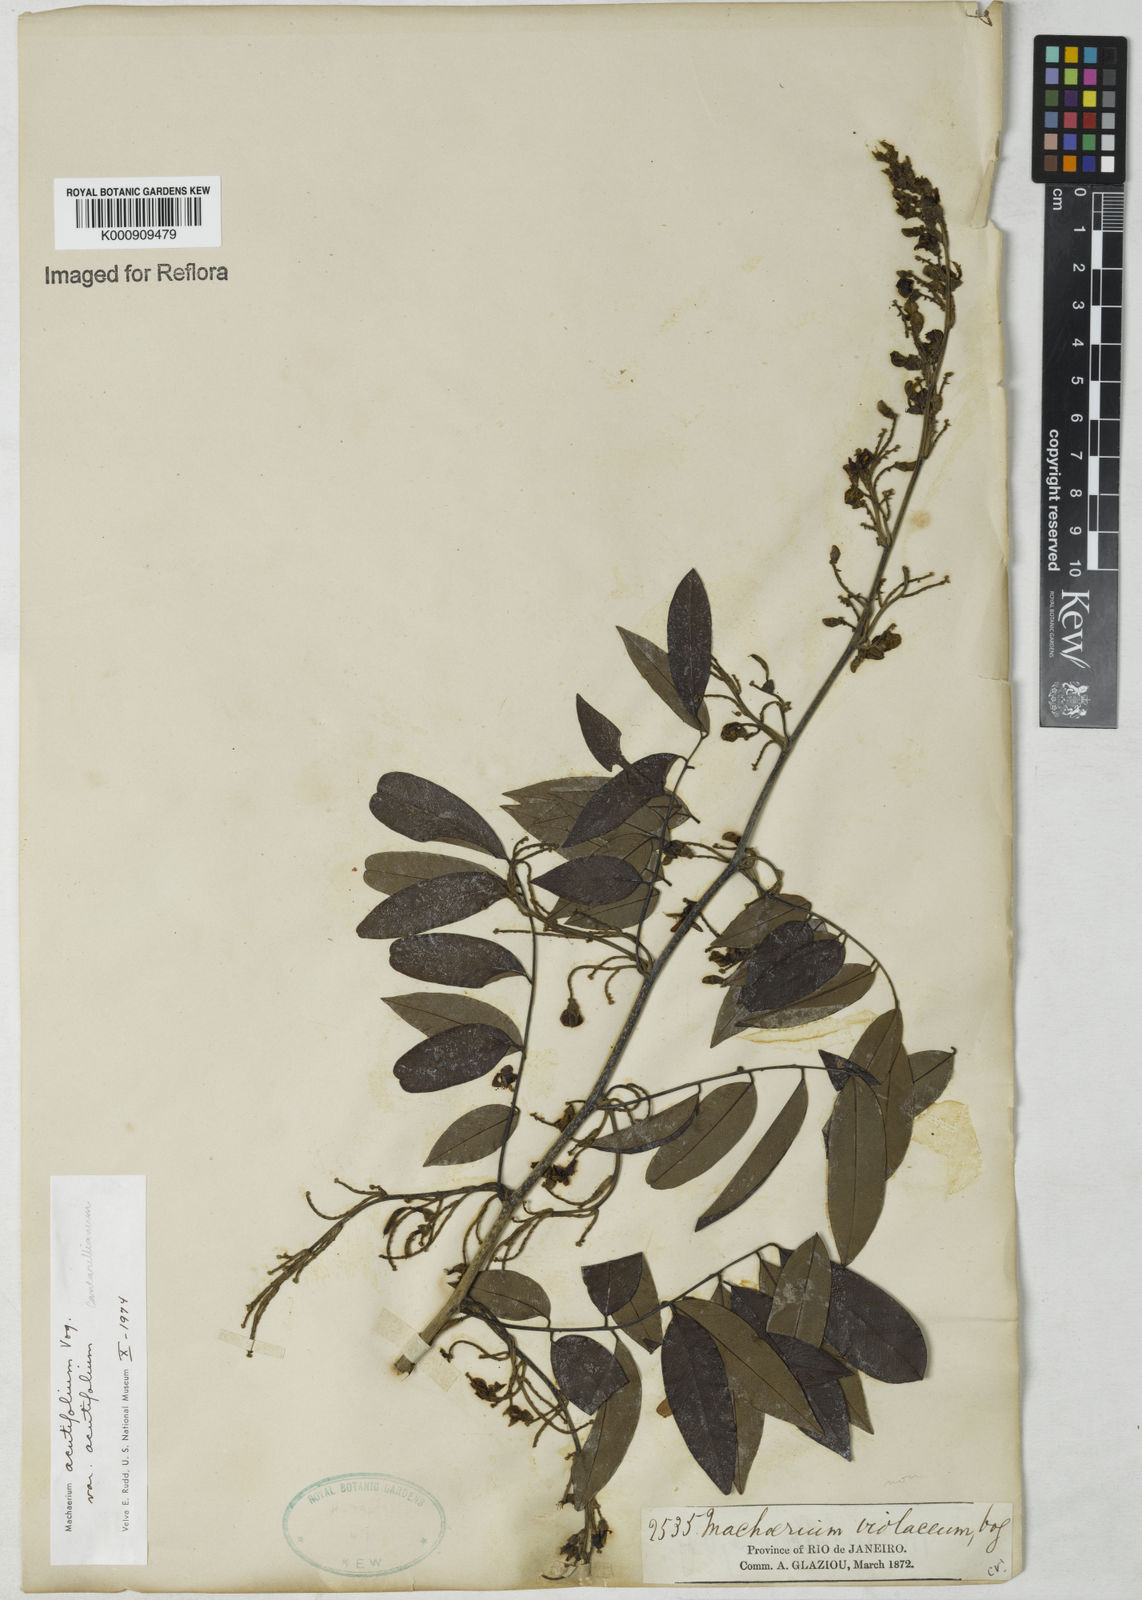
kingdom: Plantae
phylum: Tracheophyta
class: Magnoliopsida
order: Fabales
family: Fabaceae
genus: Machaerium
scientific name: Machaerium acutifolium
